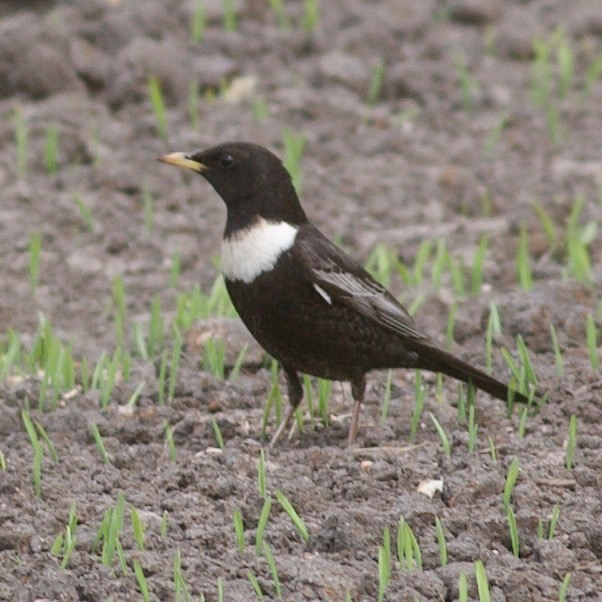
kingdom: Animalia
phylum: Chordata
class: Aves
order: Passeriformes
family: Turdidae
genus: Turdus
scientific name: Turdus torquatus
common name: Ringdrossel
